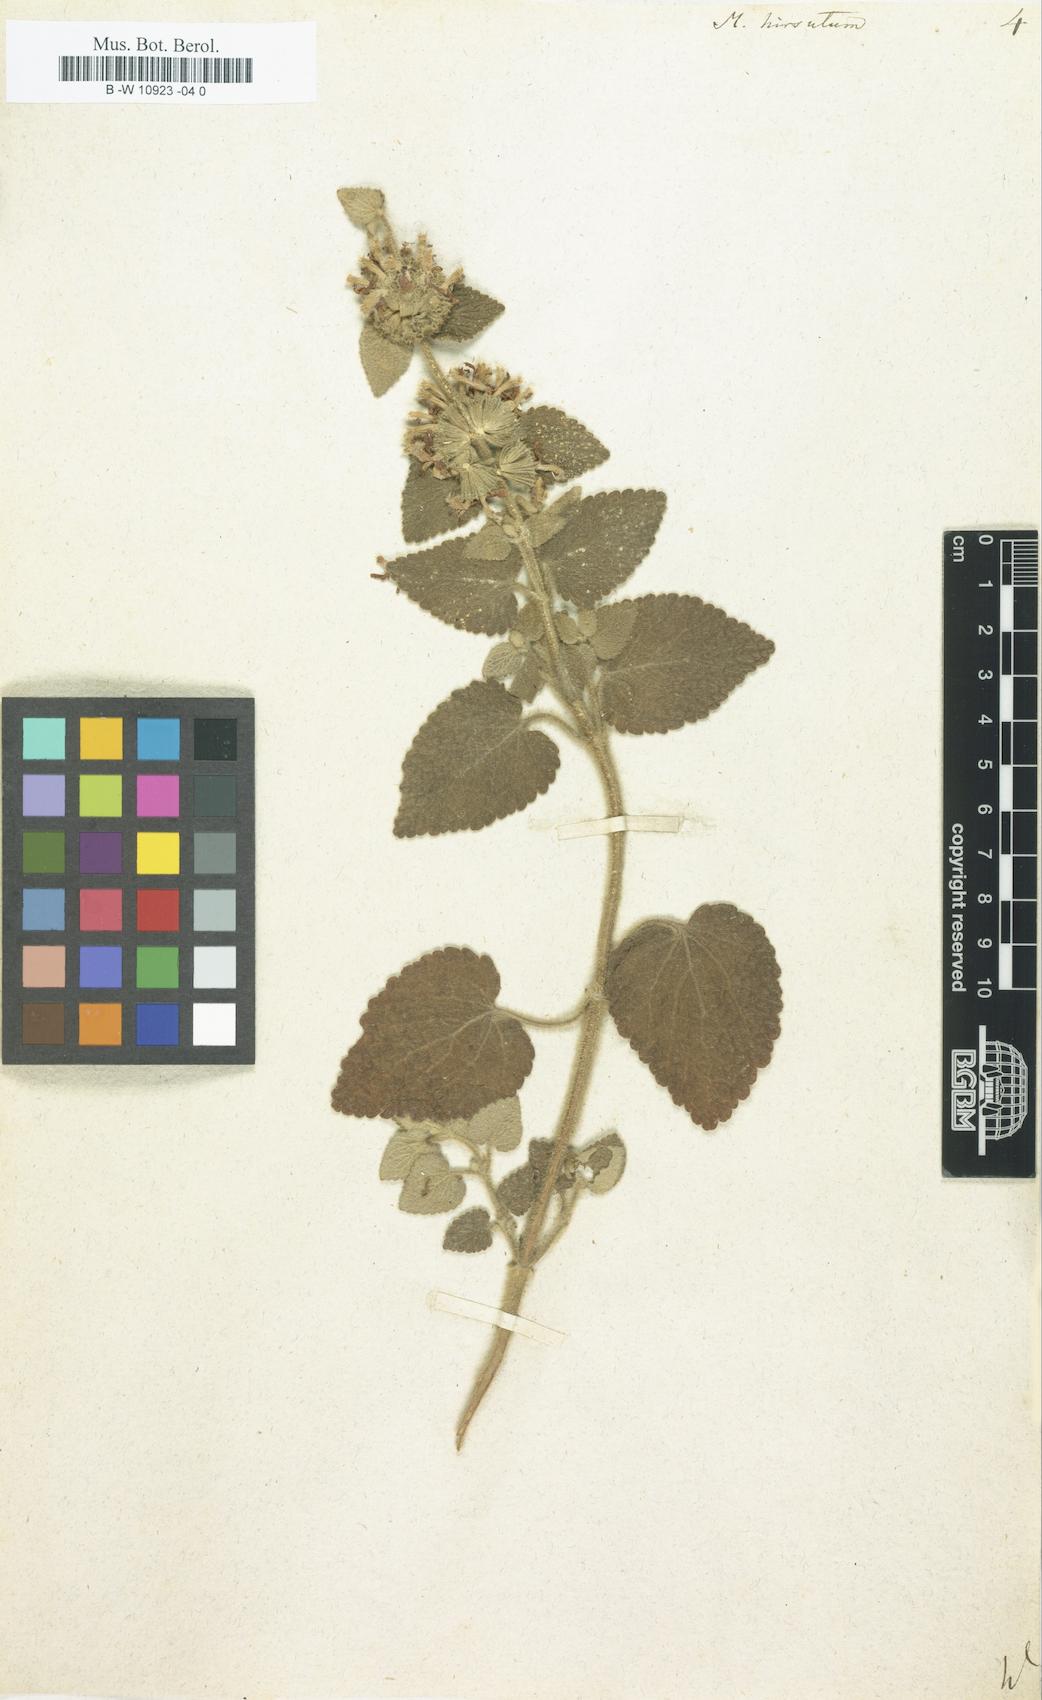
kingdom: Plantae
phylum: Tracheophyta
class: Magnoliopsida
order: Lamiales
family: Lamiaceae
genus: Pseudodictamnus
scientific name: Pseudodictamnus hirsutus
